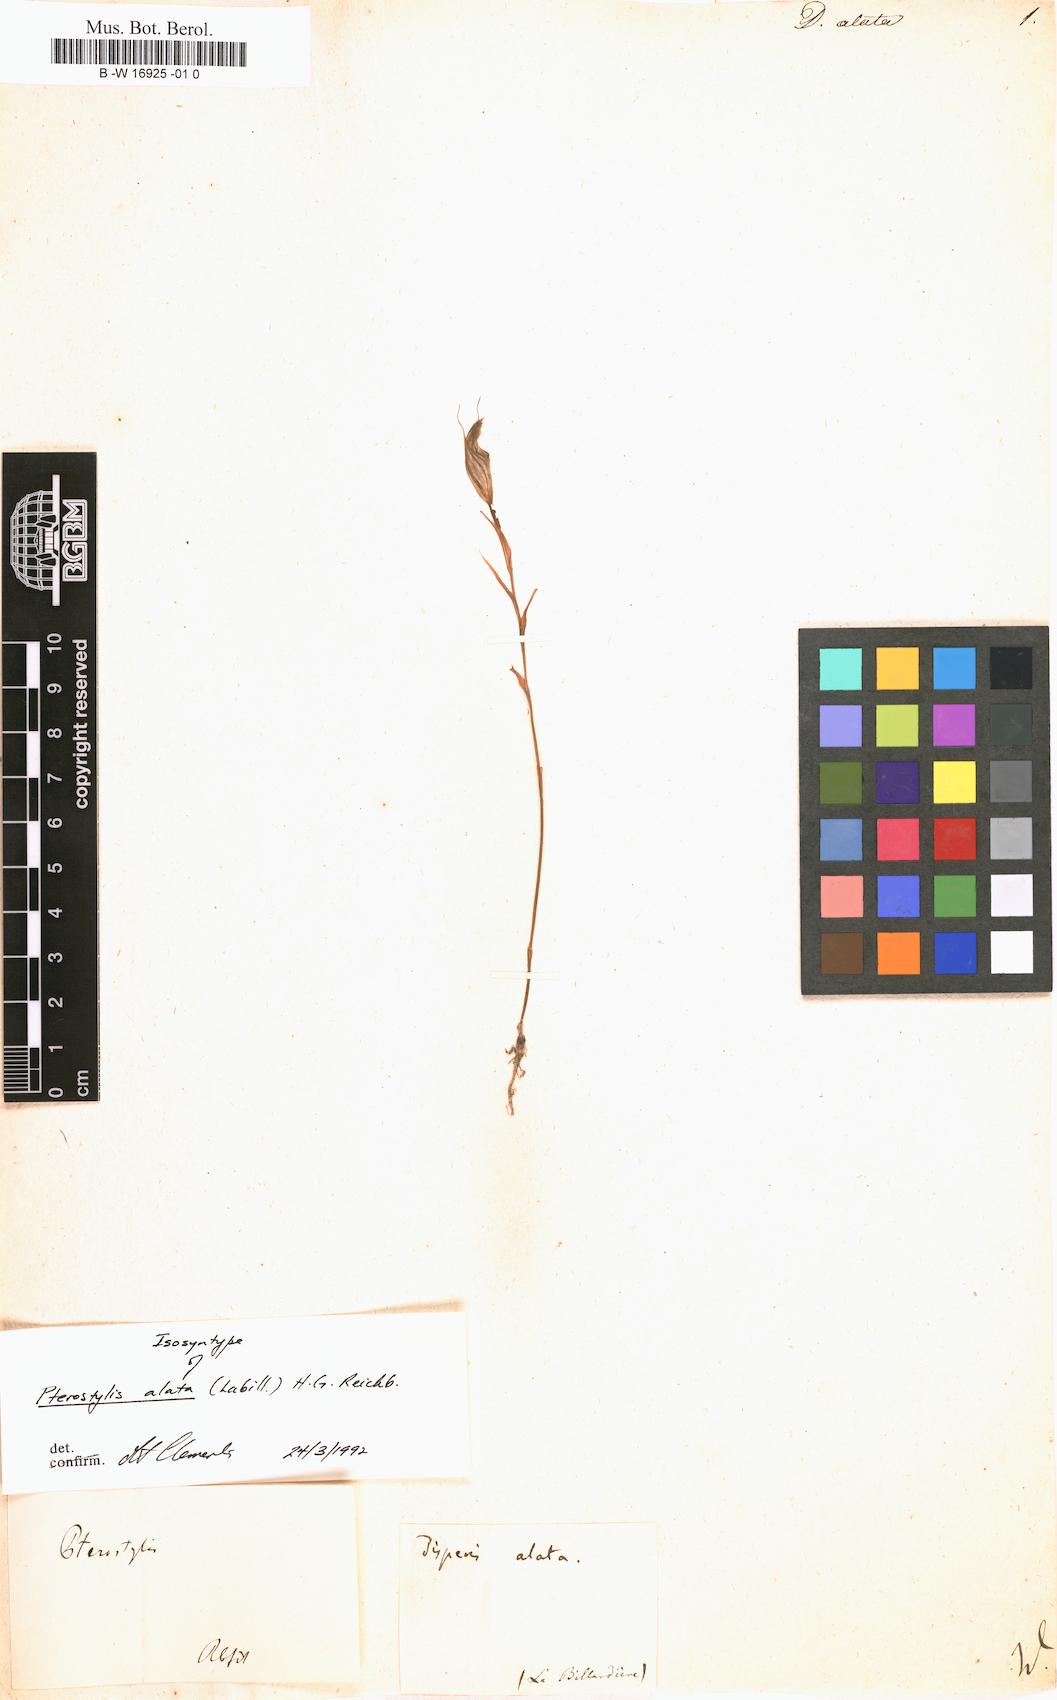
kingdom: Plantae
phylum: Tracheophyta
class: Liliopsida
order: Asparagales
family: Orchidaceae
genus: Pterostylis
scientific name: Pterostylis alata
